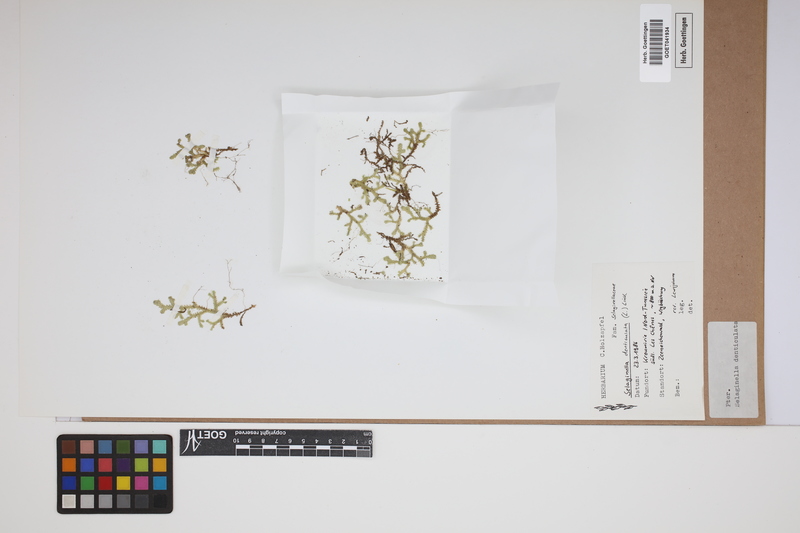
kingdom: Plantae
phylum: Tracheophyta
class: Lycopodiopsida
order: Selaginellales
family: Selaginellaceae
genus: Selaginella
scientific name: Selaginella denticulata
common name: Toothed-leaved clubmoss
